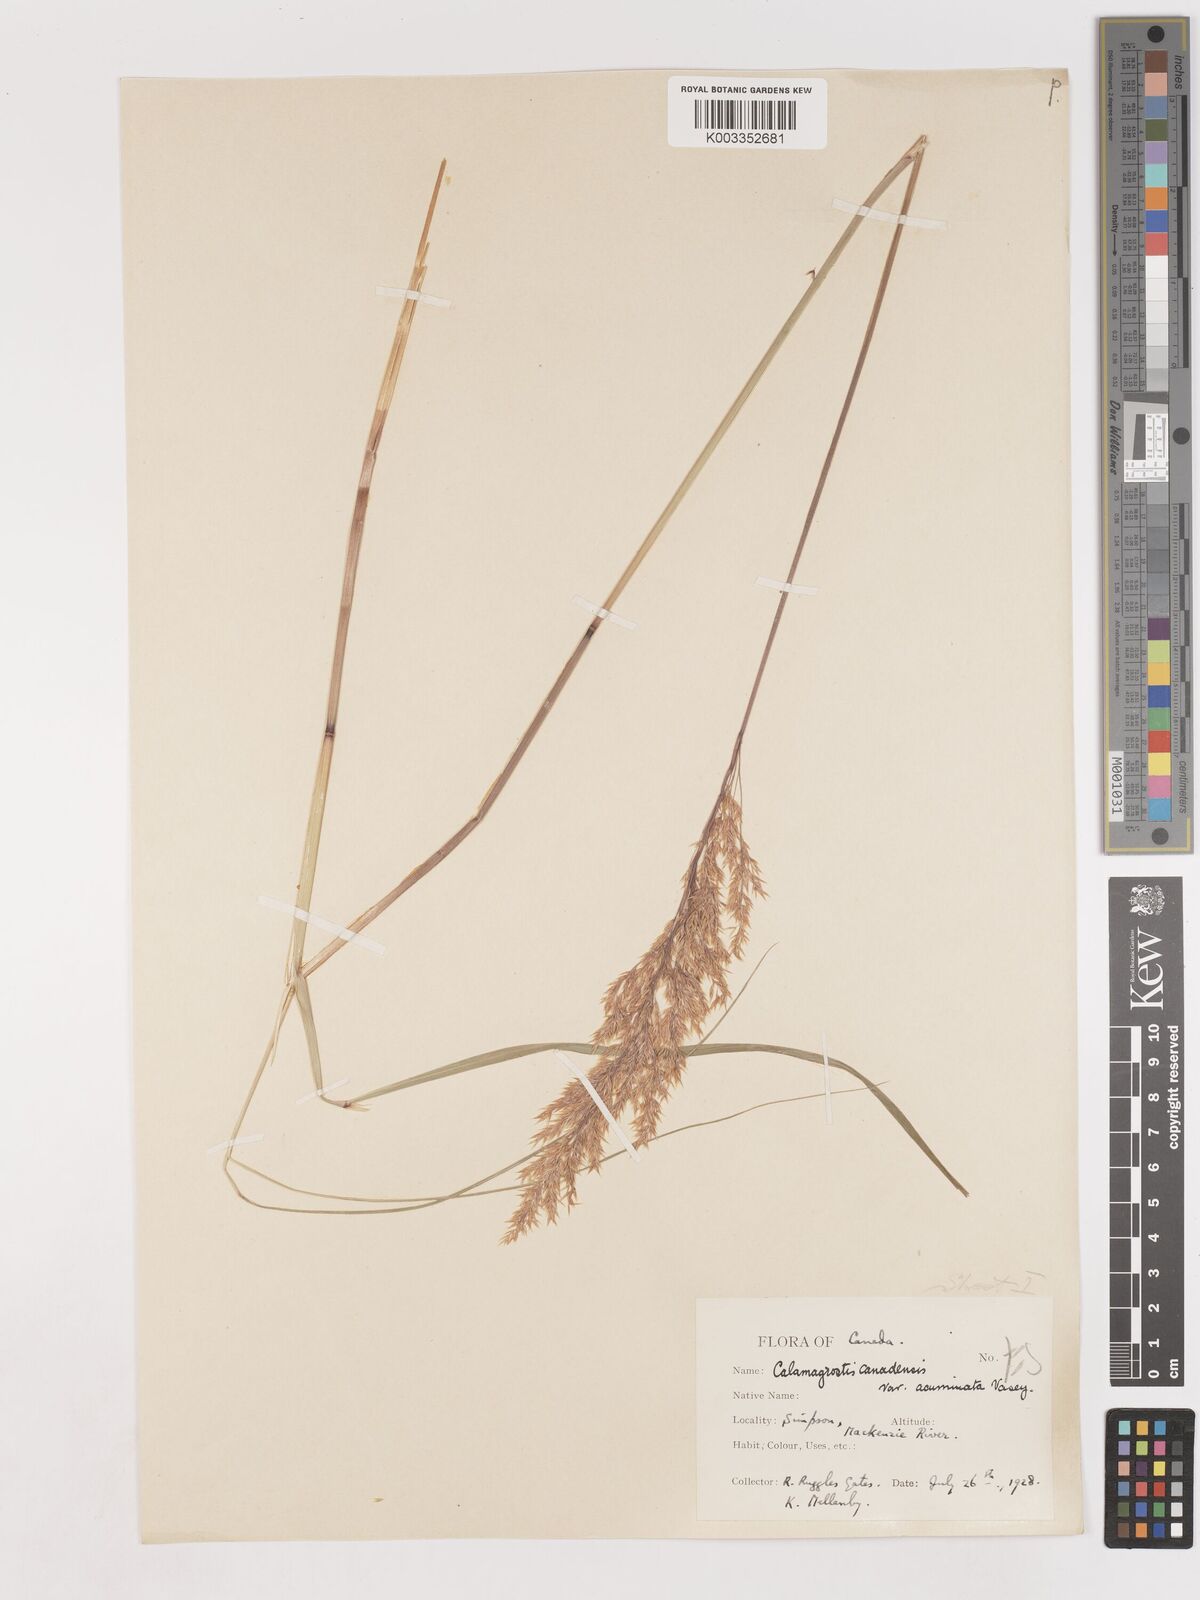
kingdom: Plantae
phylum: Tracheophyta
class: Liliopsida
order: Poales
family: Poaceae
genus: Calamagrostis
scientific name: Calamagrostis canadensis
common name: Canada bluejoint
